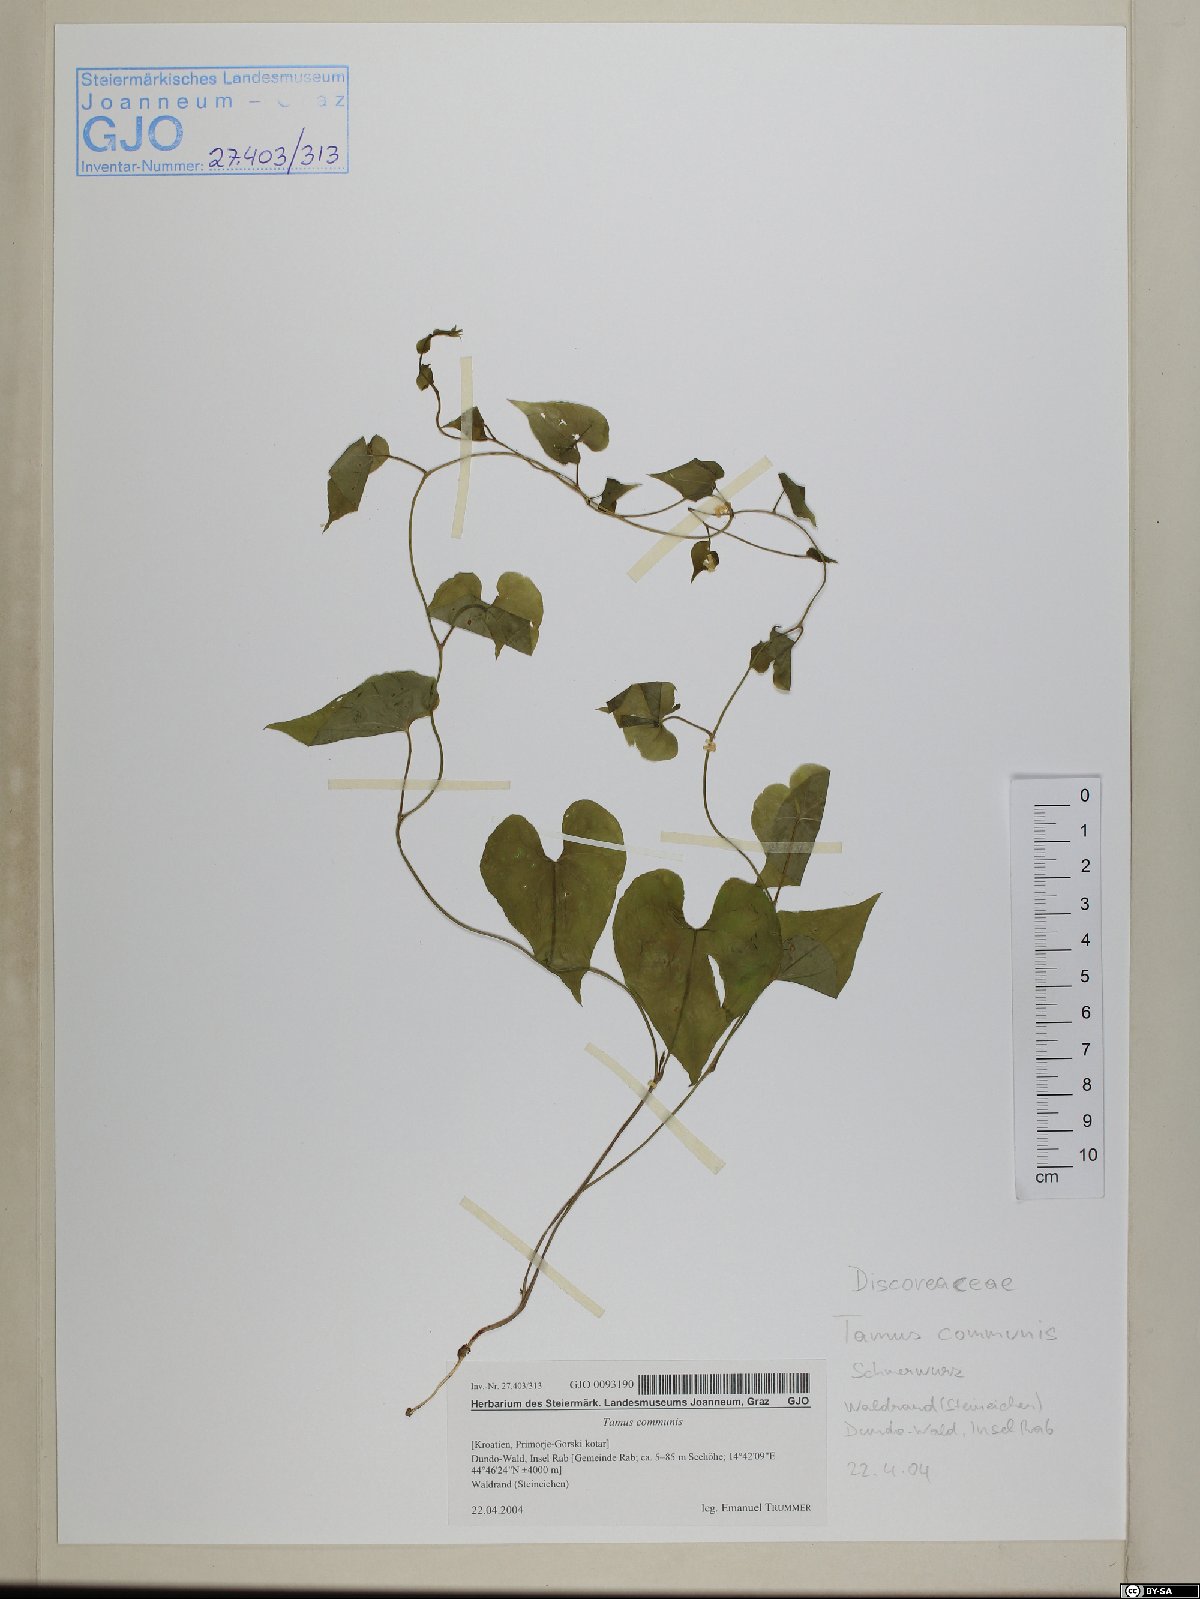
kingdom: Plantae
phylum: Tracheophyta
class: Liliopsida
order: Dioscoreales
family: Dioscoreaceae
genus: Dioscorea
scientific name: Dioscorea communis
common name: Black-bindweed
